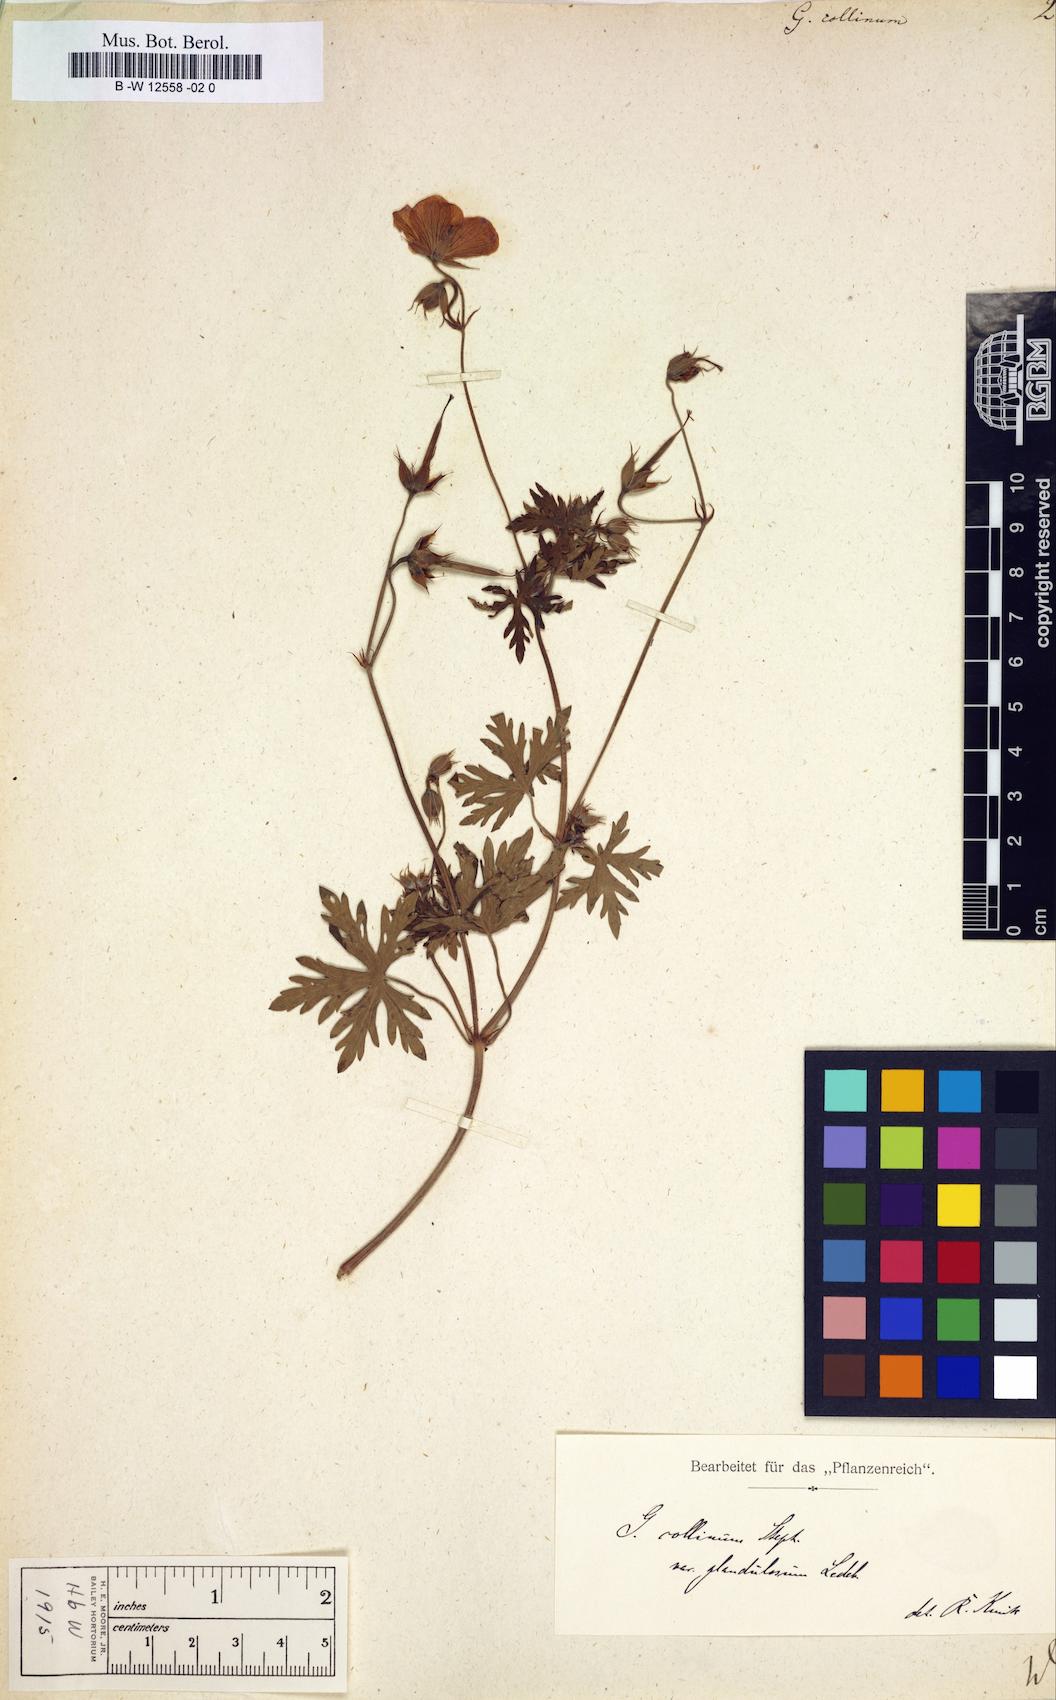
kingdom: Plantae
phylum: Tracheophyta
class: Magnoliopsida
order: Geraniales
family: Geraniaceae
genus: Geranium
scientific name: Geranium collinum
